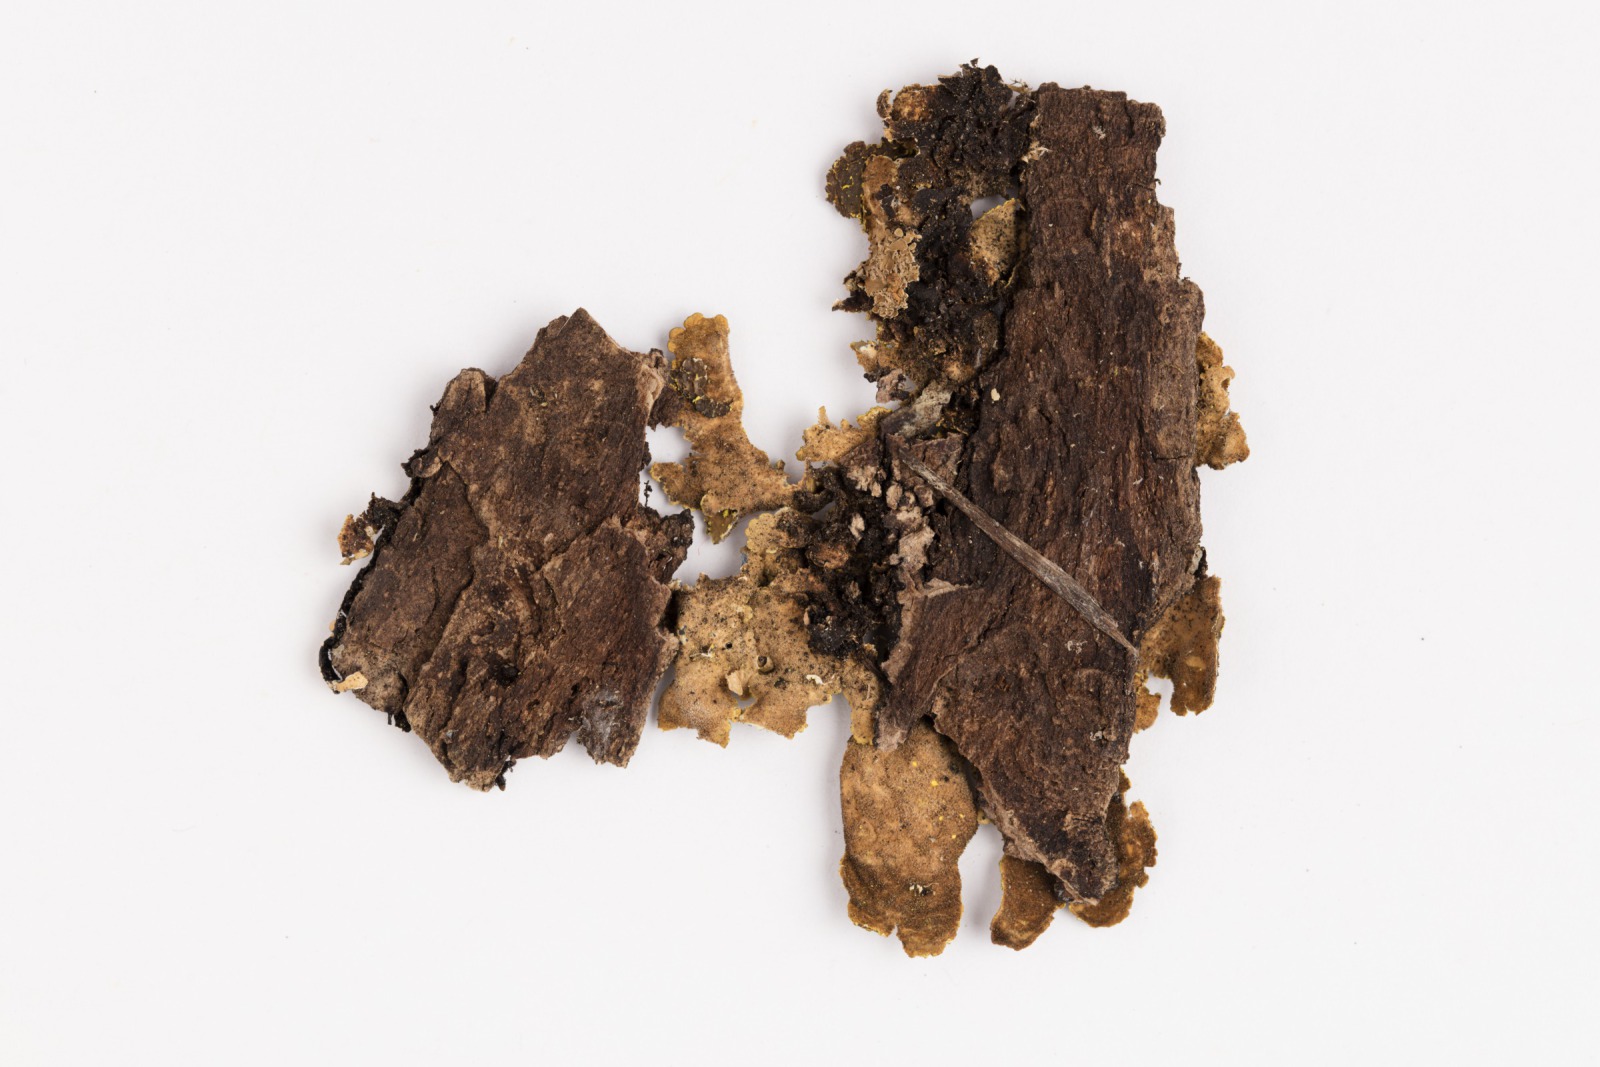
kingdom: Fungi
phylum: Ascomycota
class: Lecanoromycetes
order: Peltigerales
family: Lobariaceae
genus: Pseudocyphellaria
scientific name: Pseudocyphellaria crocata
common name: Golden specklebelly
